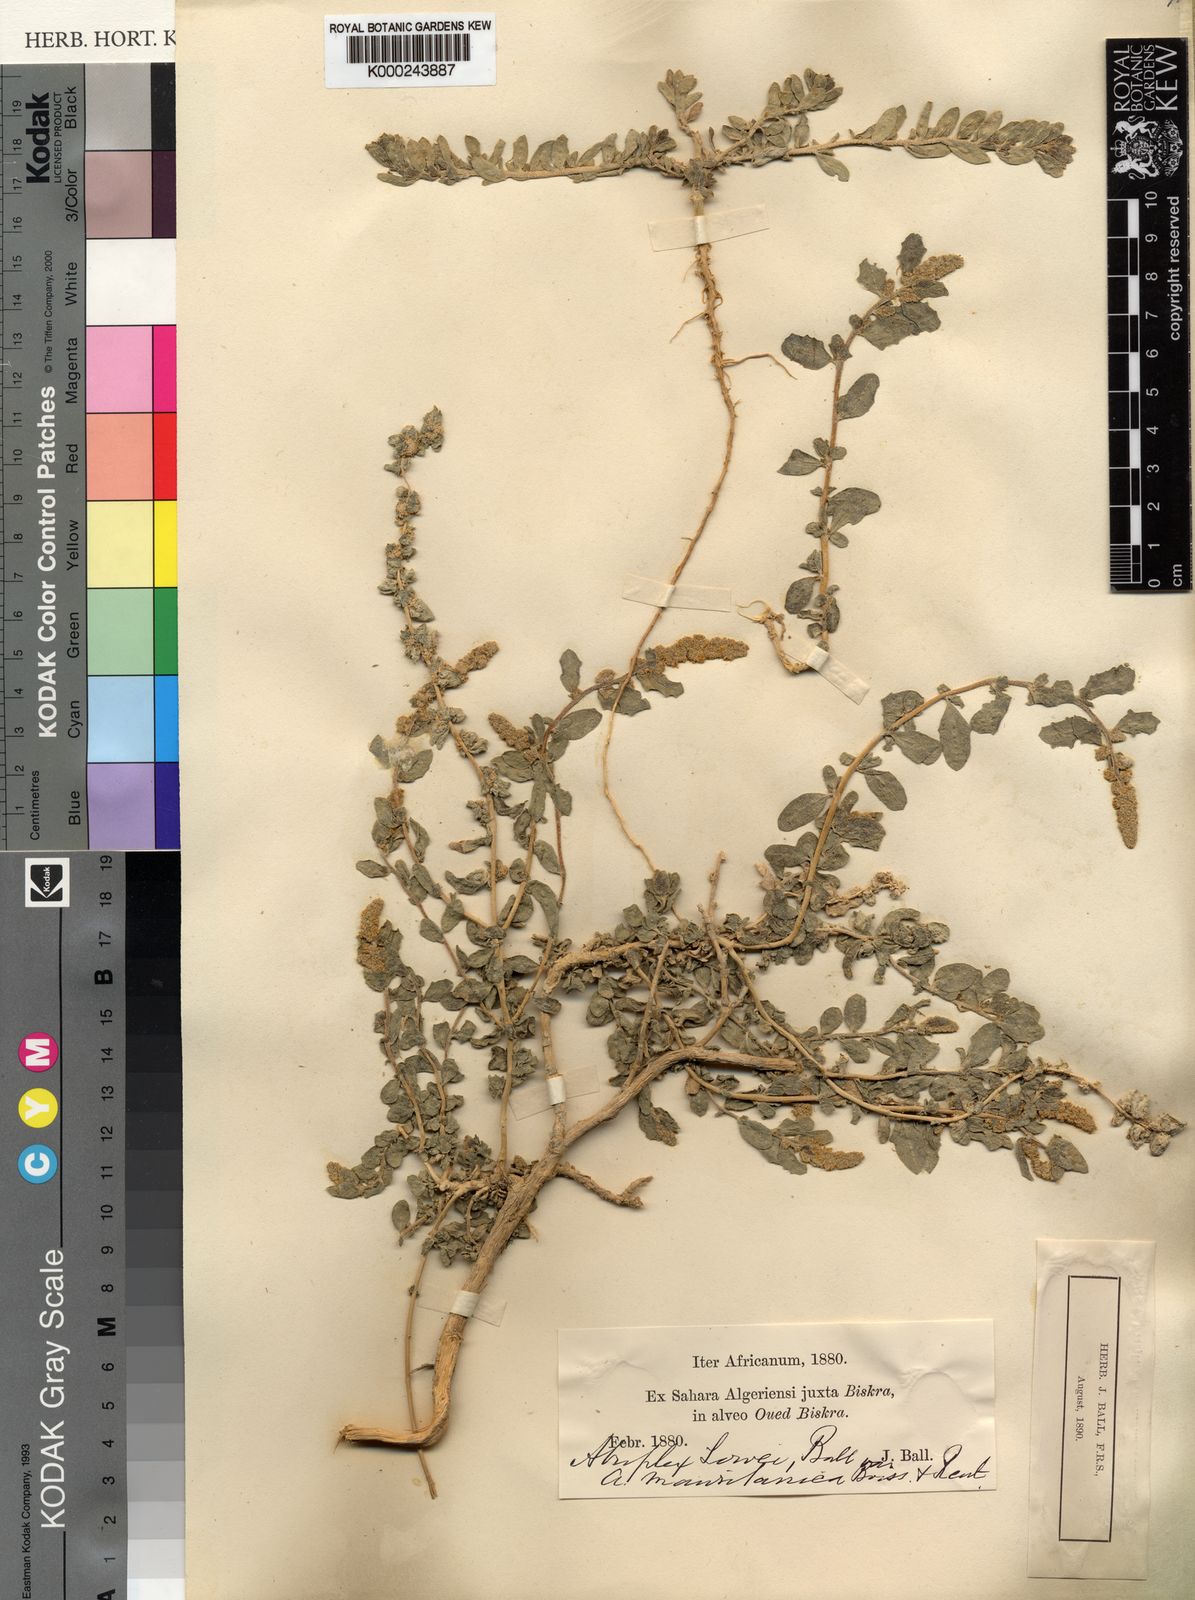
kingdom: Plantae
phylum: Tracheophyta
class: Magnoliopsida
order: Caryophyllales
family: Amaranthaceae
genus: Atriplex
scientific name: Atriplex glauca
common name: Waxy saltbush
